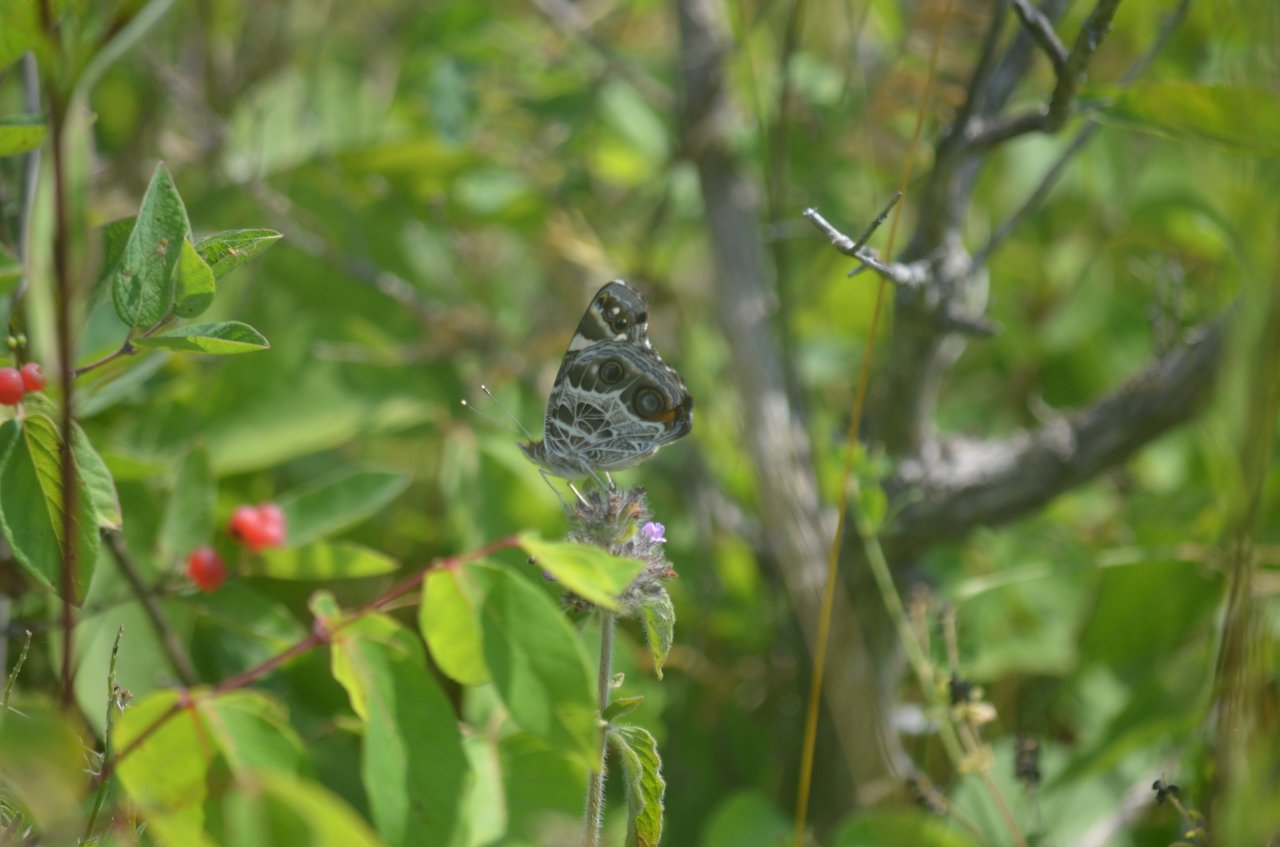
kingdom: Animalia
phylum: Arthropoda
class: Insecta
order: Lepidoptera
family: Nymphalidae
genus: Vanessa
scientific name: Vanessa virginiensis
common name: American Lady
